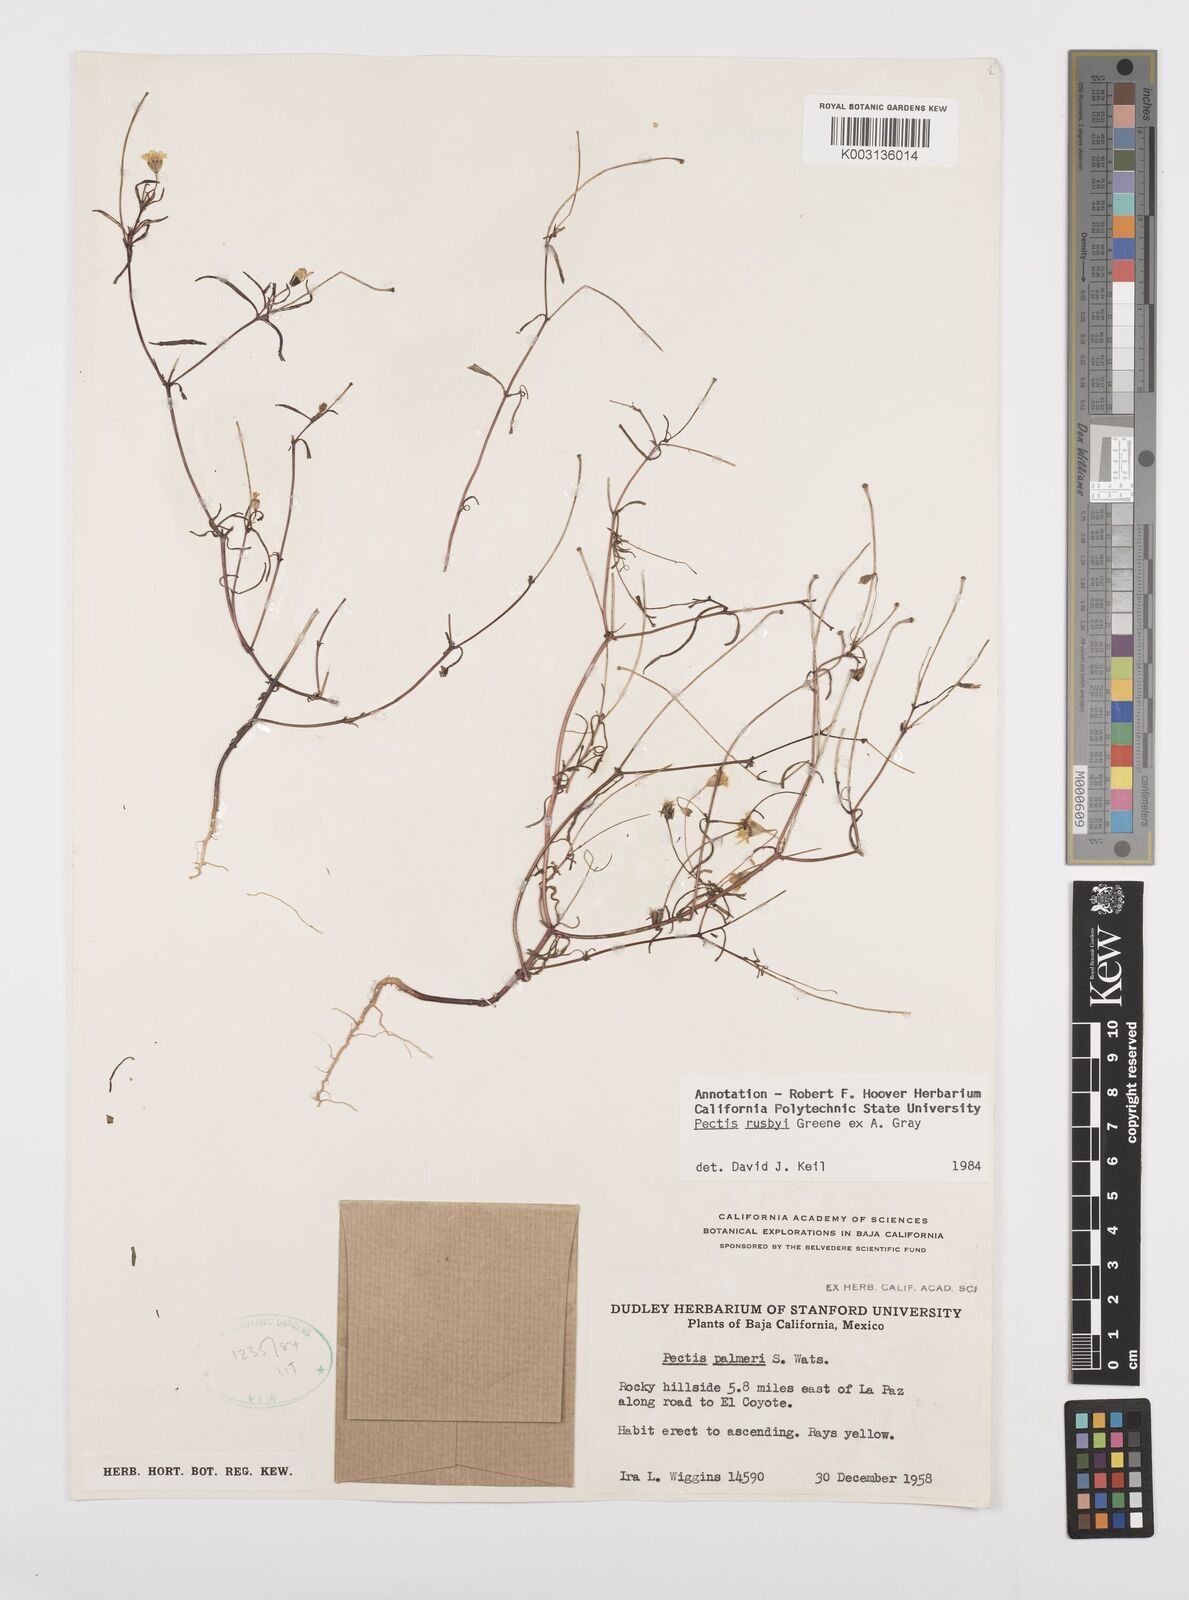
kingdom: Plantae
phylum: Tracheophyta
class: Magnoliopsida
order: Asterales
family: Asteraceae
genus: Pectis
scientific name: Pectis rusbyi
